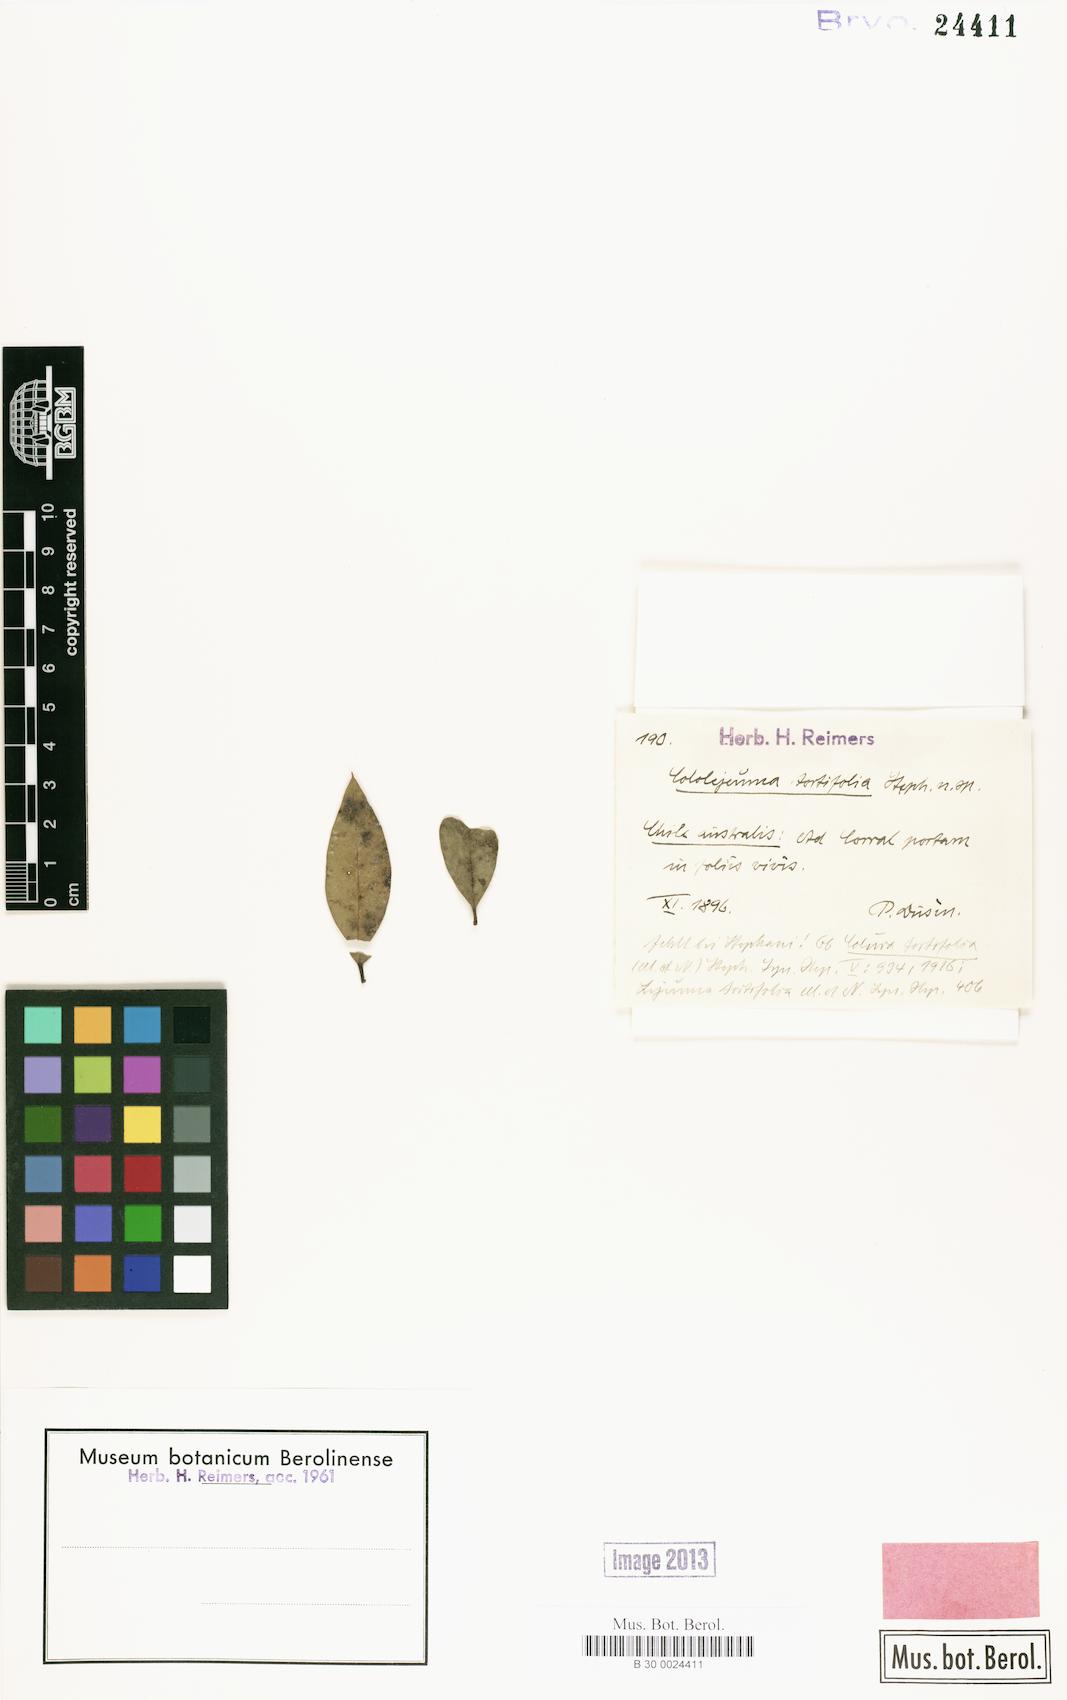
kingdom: Plantae
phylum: Marchantiophyta
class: Jungermanniopsida
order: Porellales
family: Lejeuneaceae
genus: Cololejeunea
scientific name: Cololejeunea microscopica
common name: Long-leaved pouncewort
